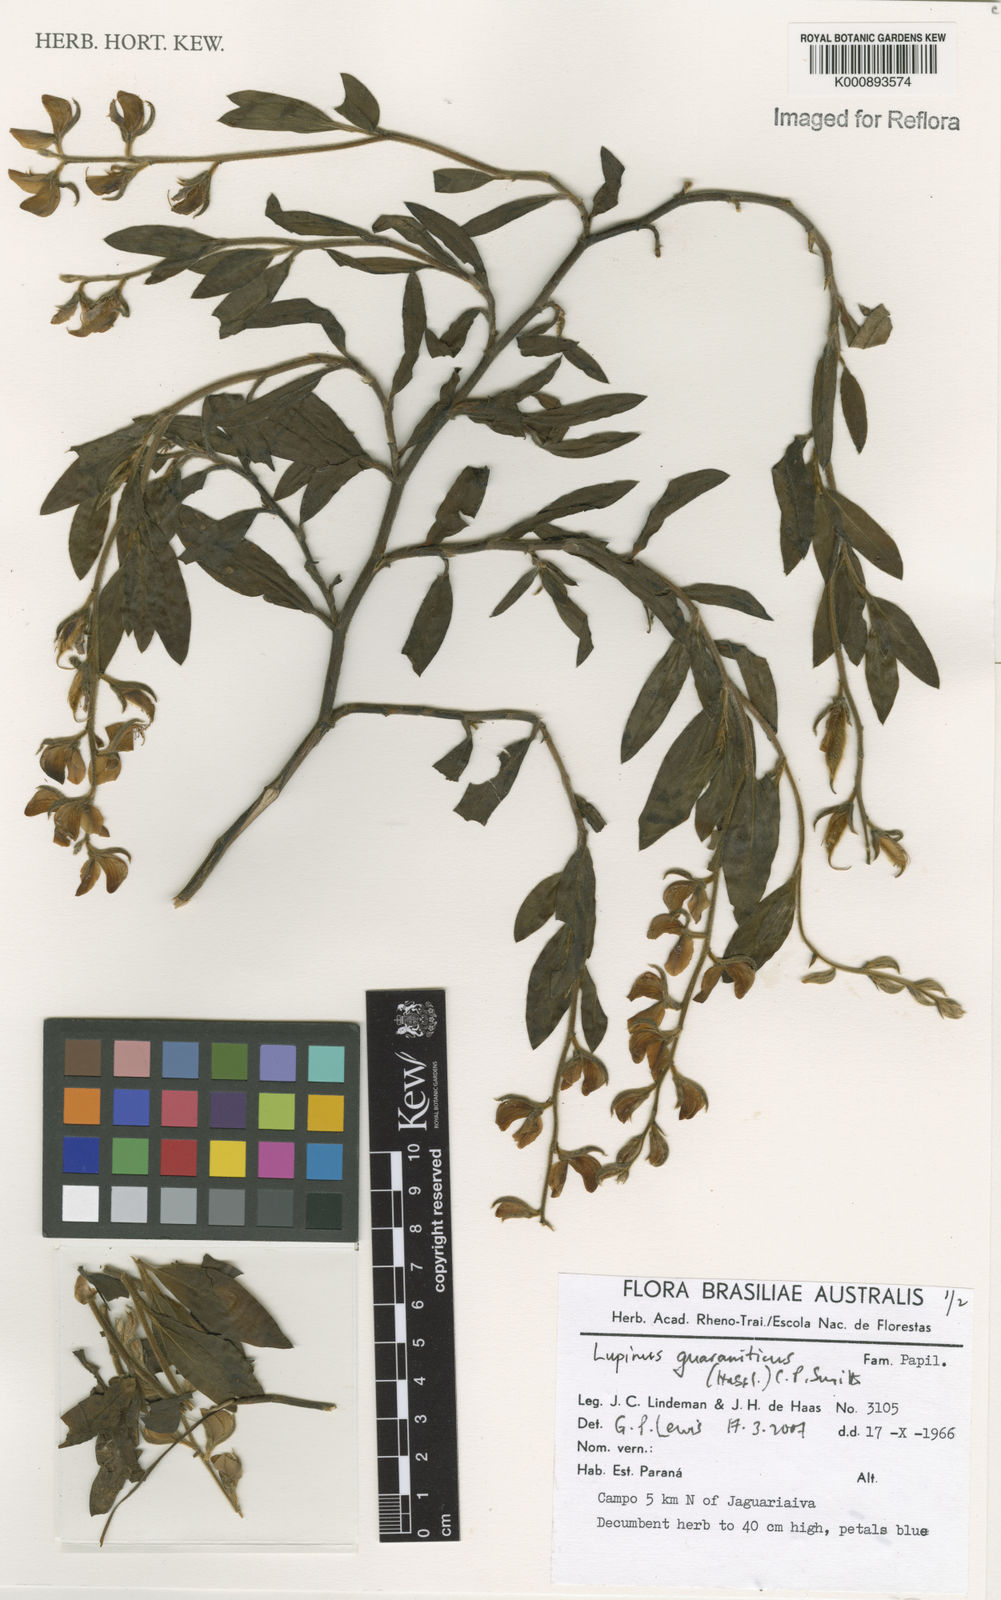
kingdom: Plantae
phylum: Tracheophyta
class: Magnoliopsida
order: Fabales
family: Fabaceae
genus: Lupinus
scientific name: Lupinus guaraniticus
